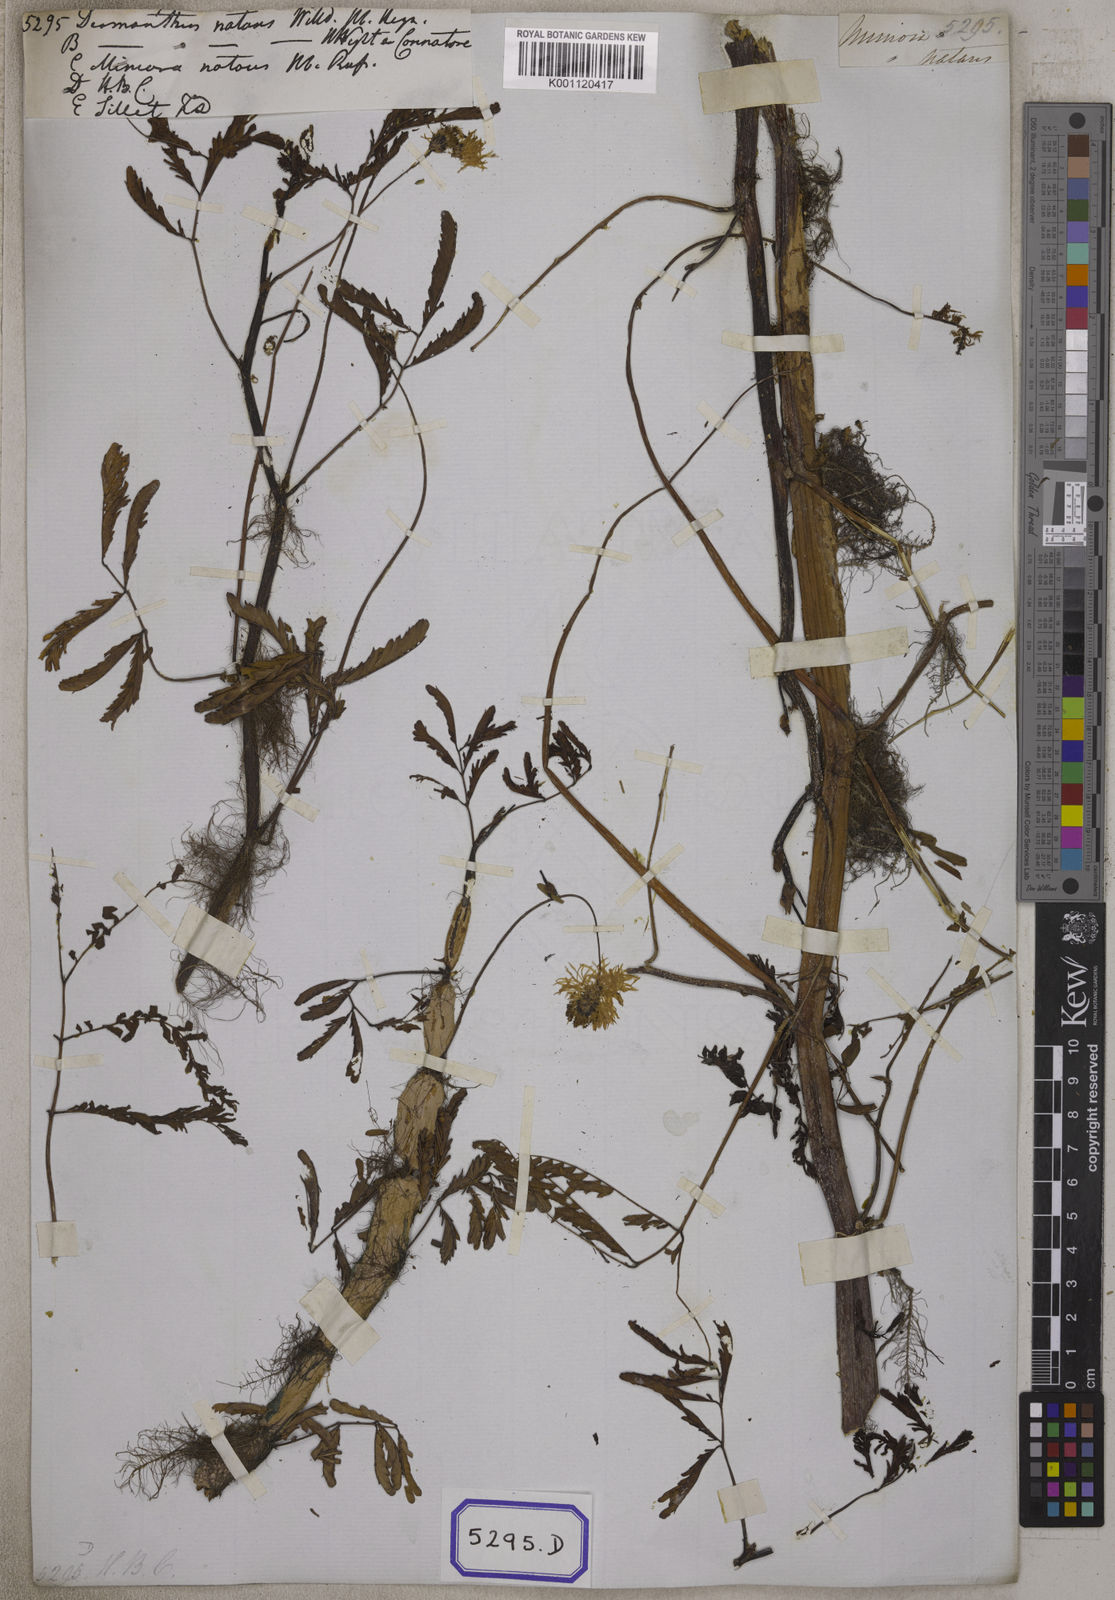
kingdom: Plantae
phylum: Tracheophyta
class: Magnoliopsida
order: Fabales
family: Fabaceae
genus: Neptunia
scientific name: Neptunia prostrata
